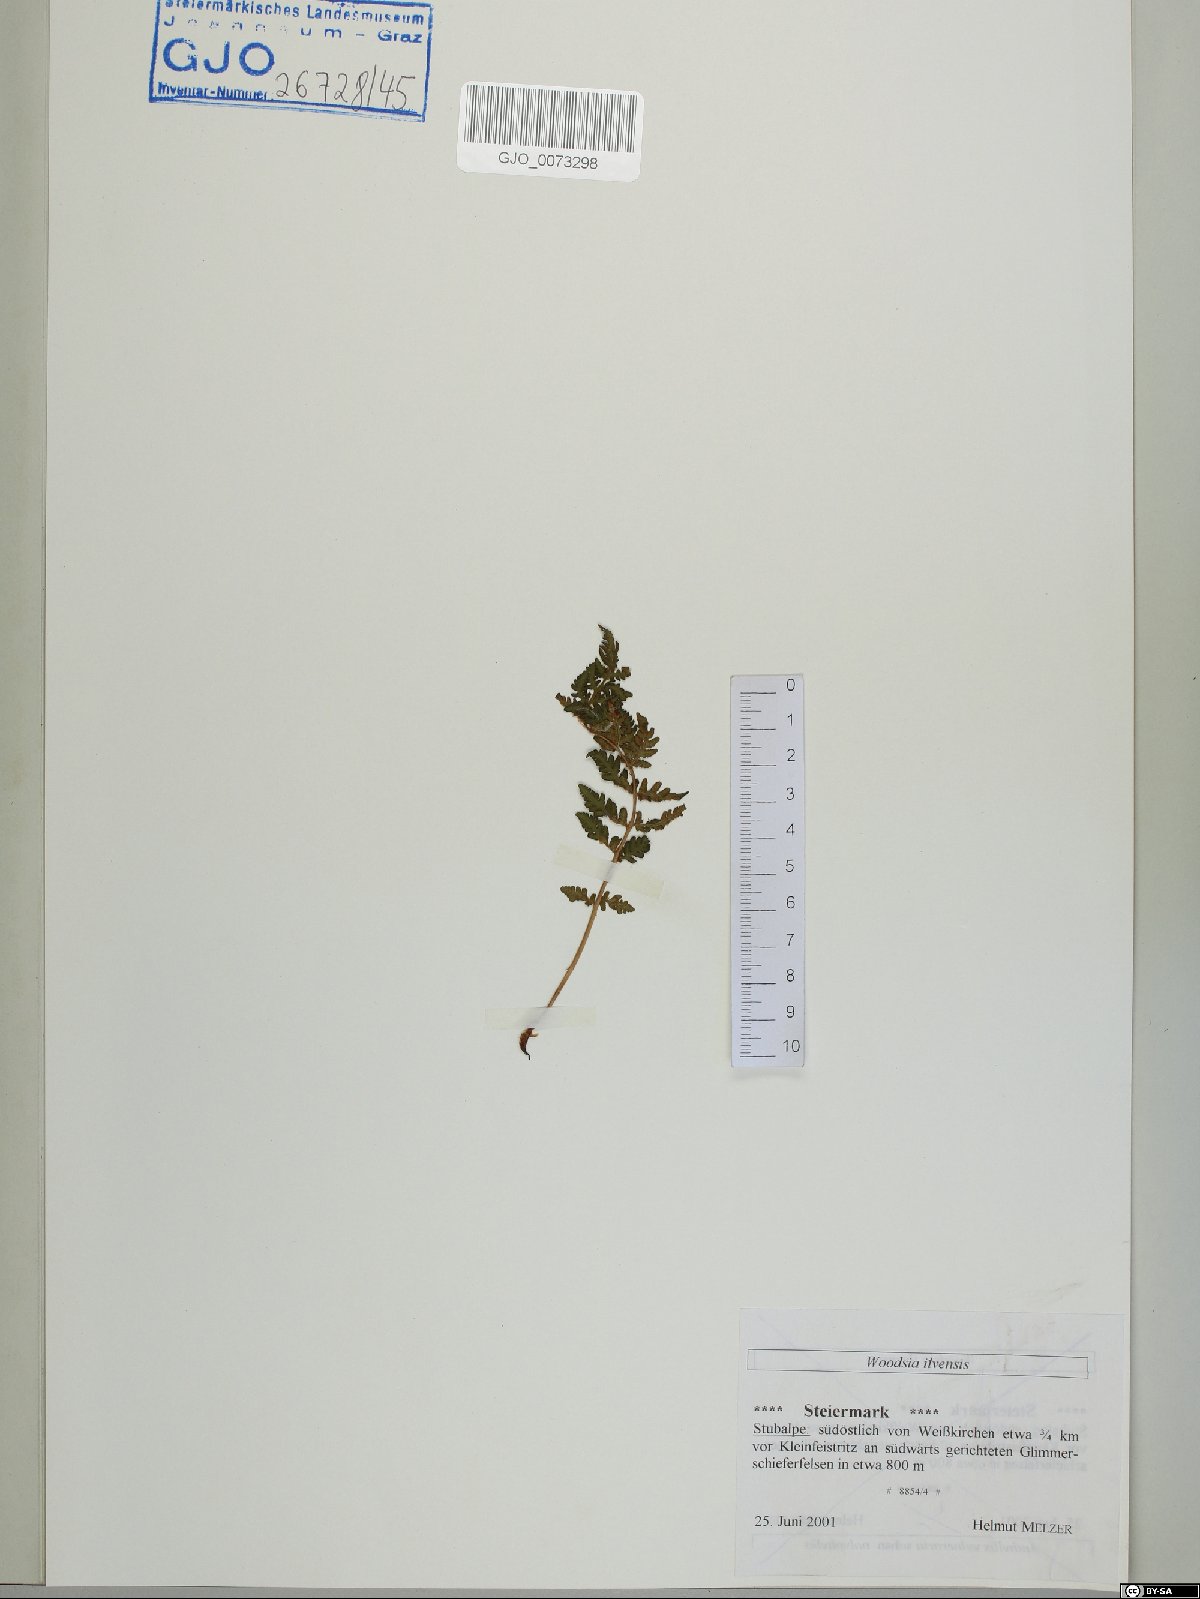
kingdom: Plantae
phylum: Tracheophyta
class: Polypodiopsida
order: Polypodiales
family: Woodsiaceae
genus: Woodsia
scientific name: Woodsia ilvensis
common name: Fragrant woodsia
